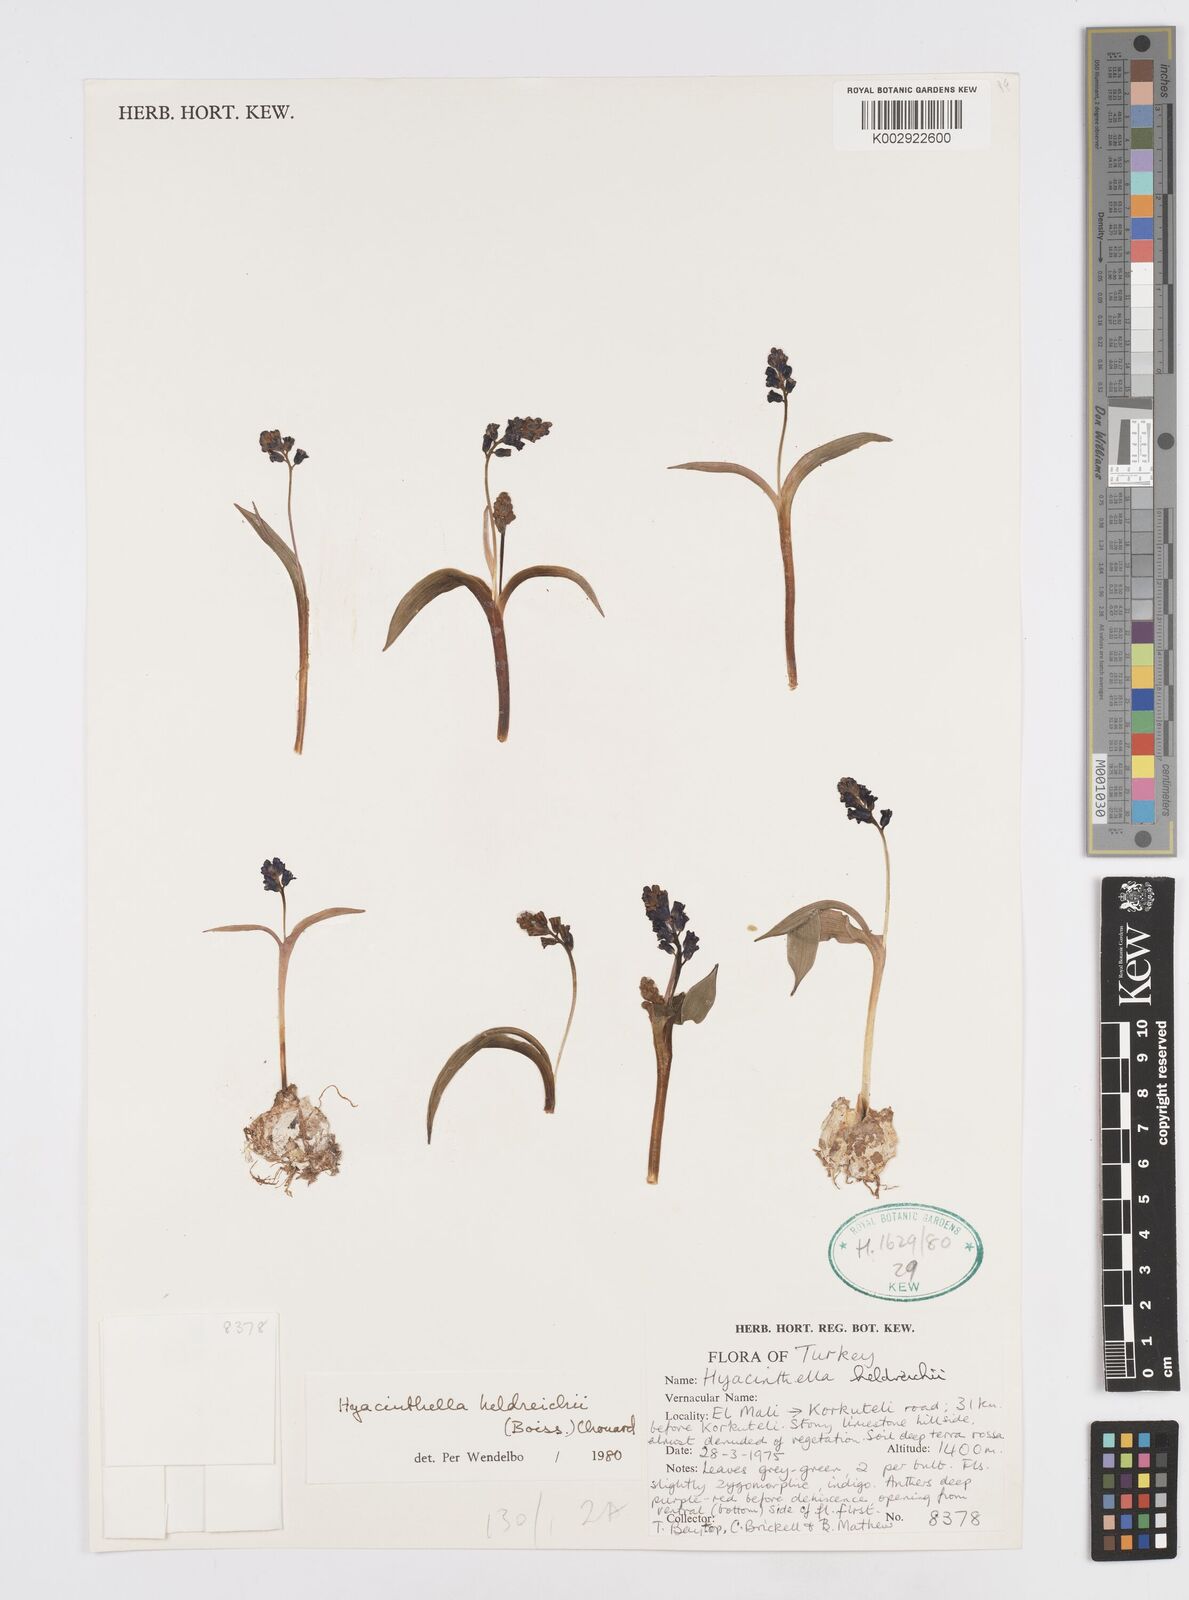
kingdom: Plantae
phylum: Tracheophyta
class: Liliopsida
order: Asparagales
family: Asparagaceae
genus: Hyacinthella
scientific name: Hyacinthella heldreichii
